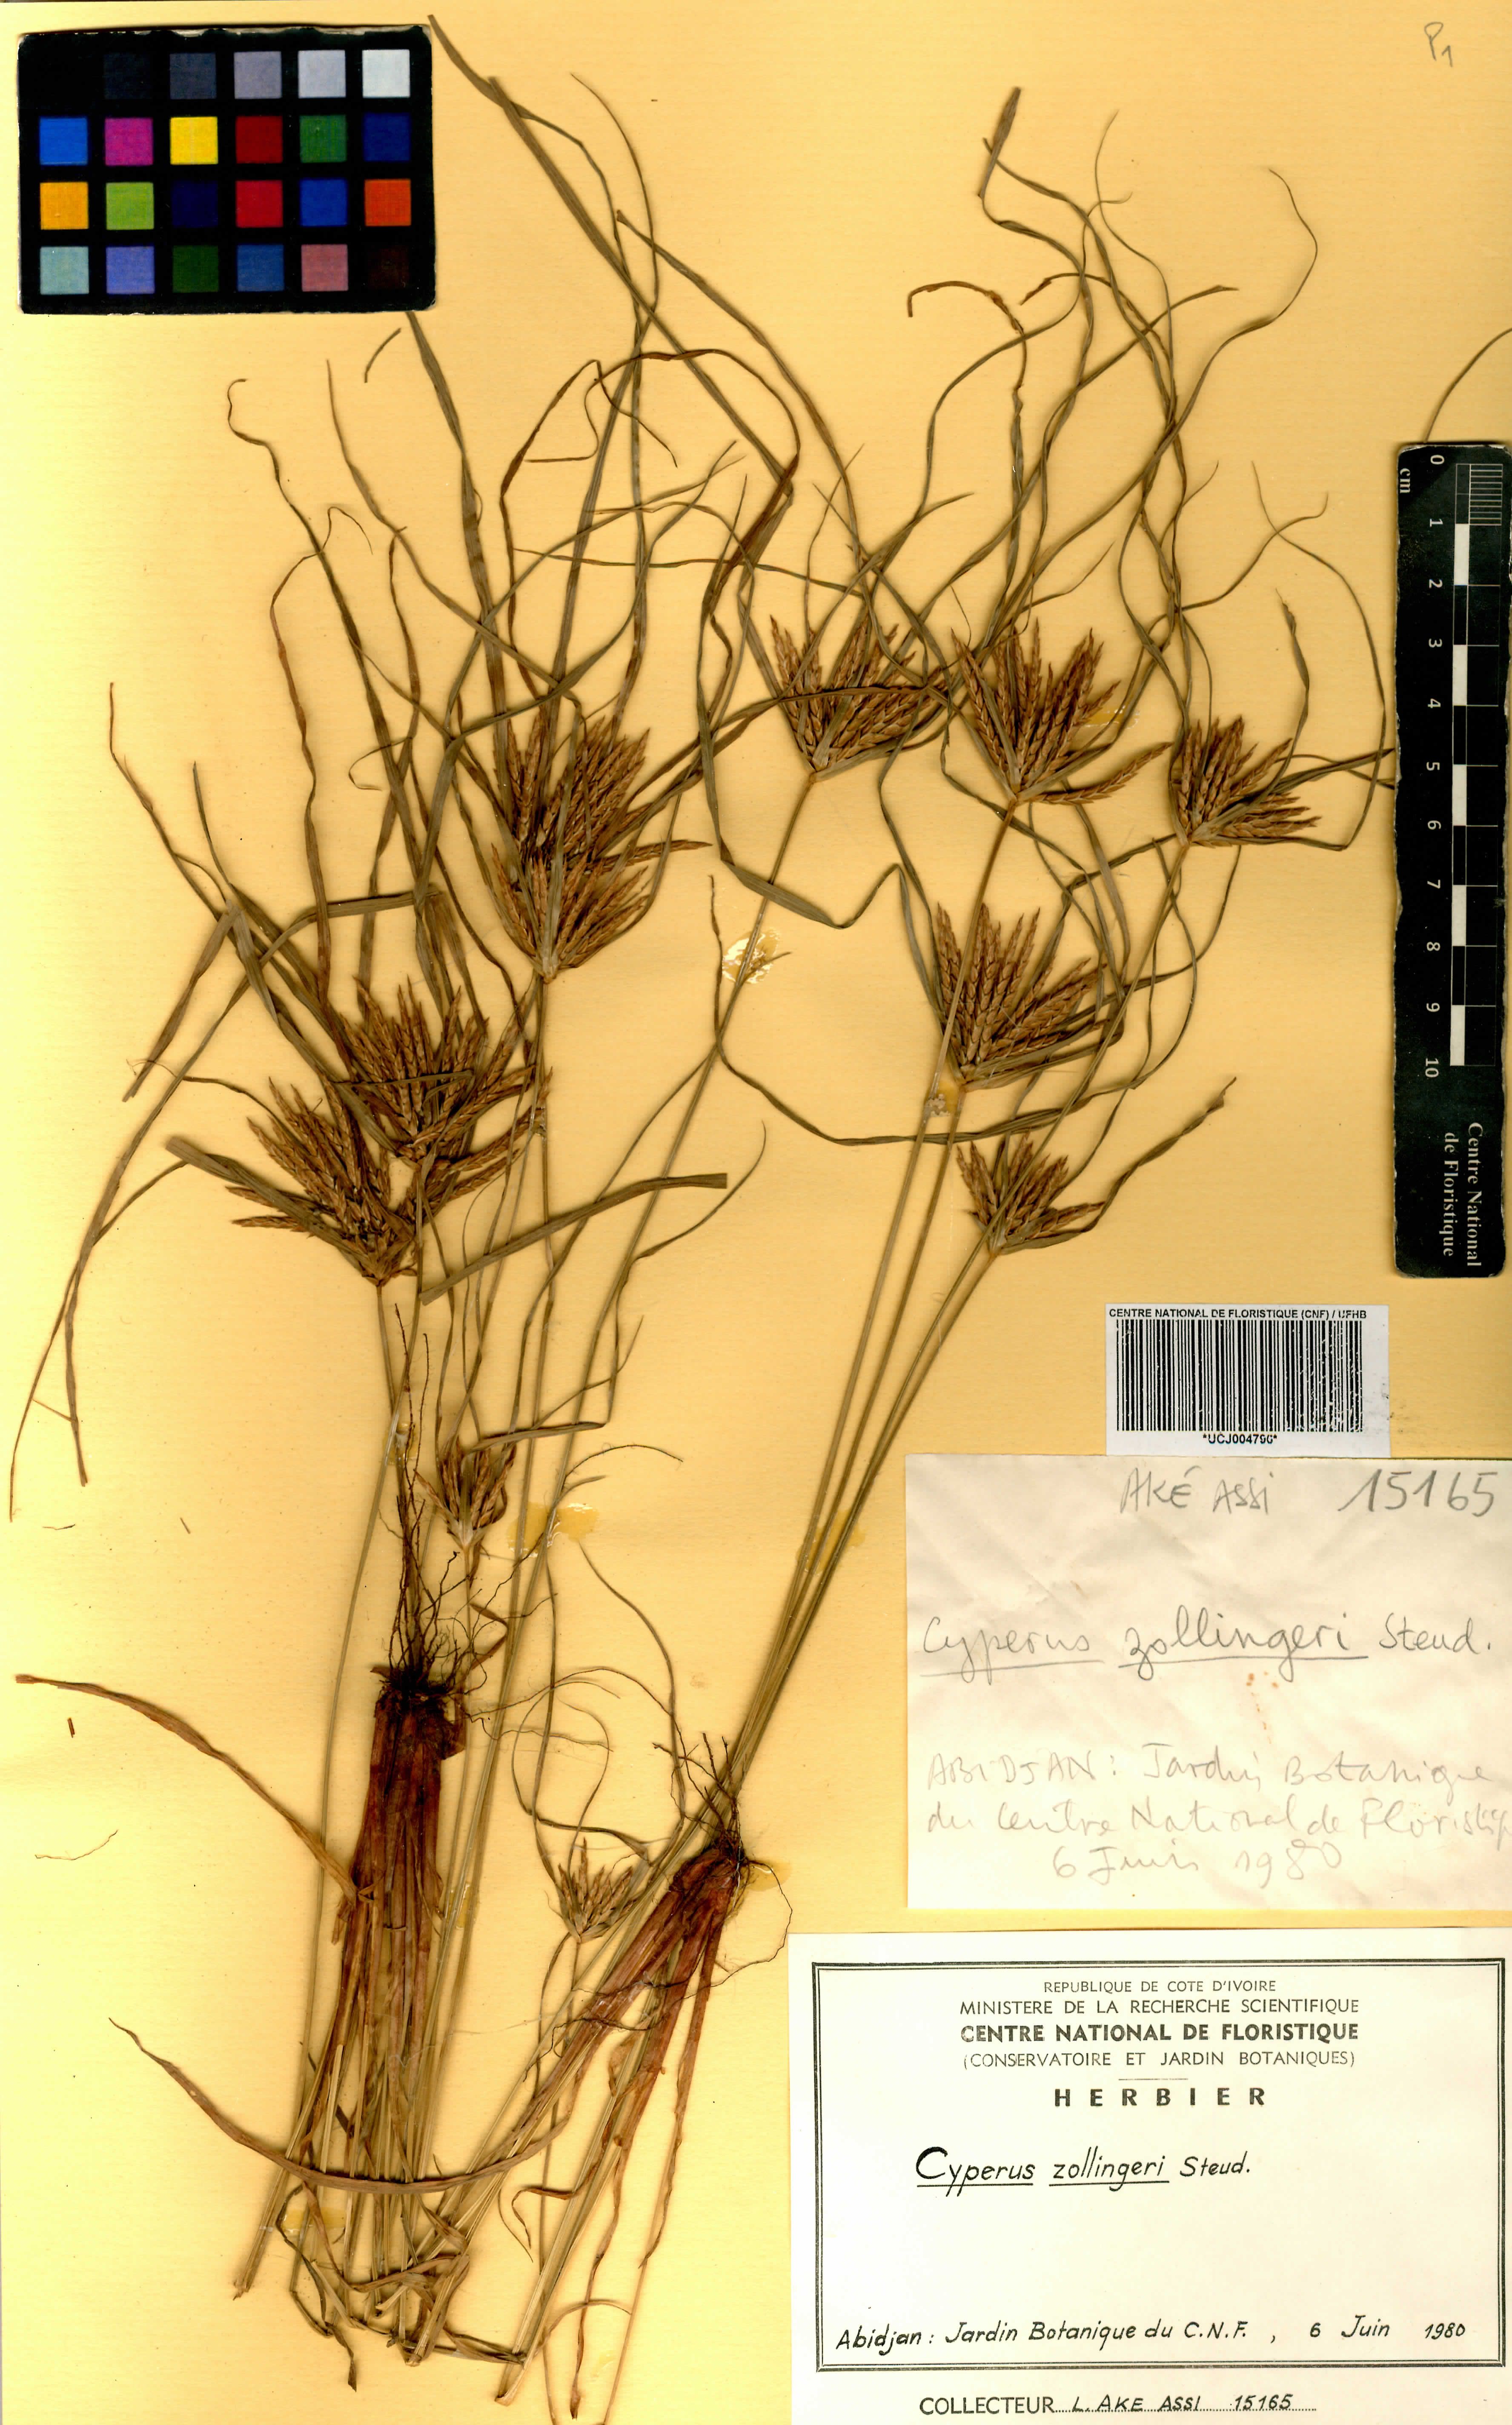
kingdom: Plantae
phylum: Tracheophyta
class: Liliopsida
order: Poales
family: Cyperaceae
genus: Cyperus
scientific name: Cyperus zollingeri
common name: Roadside flatsedge
